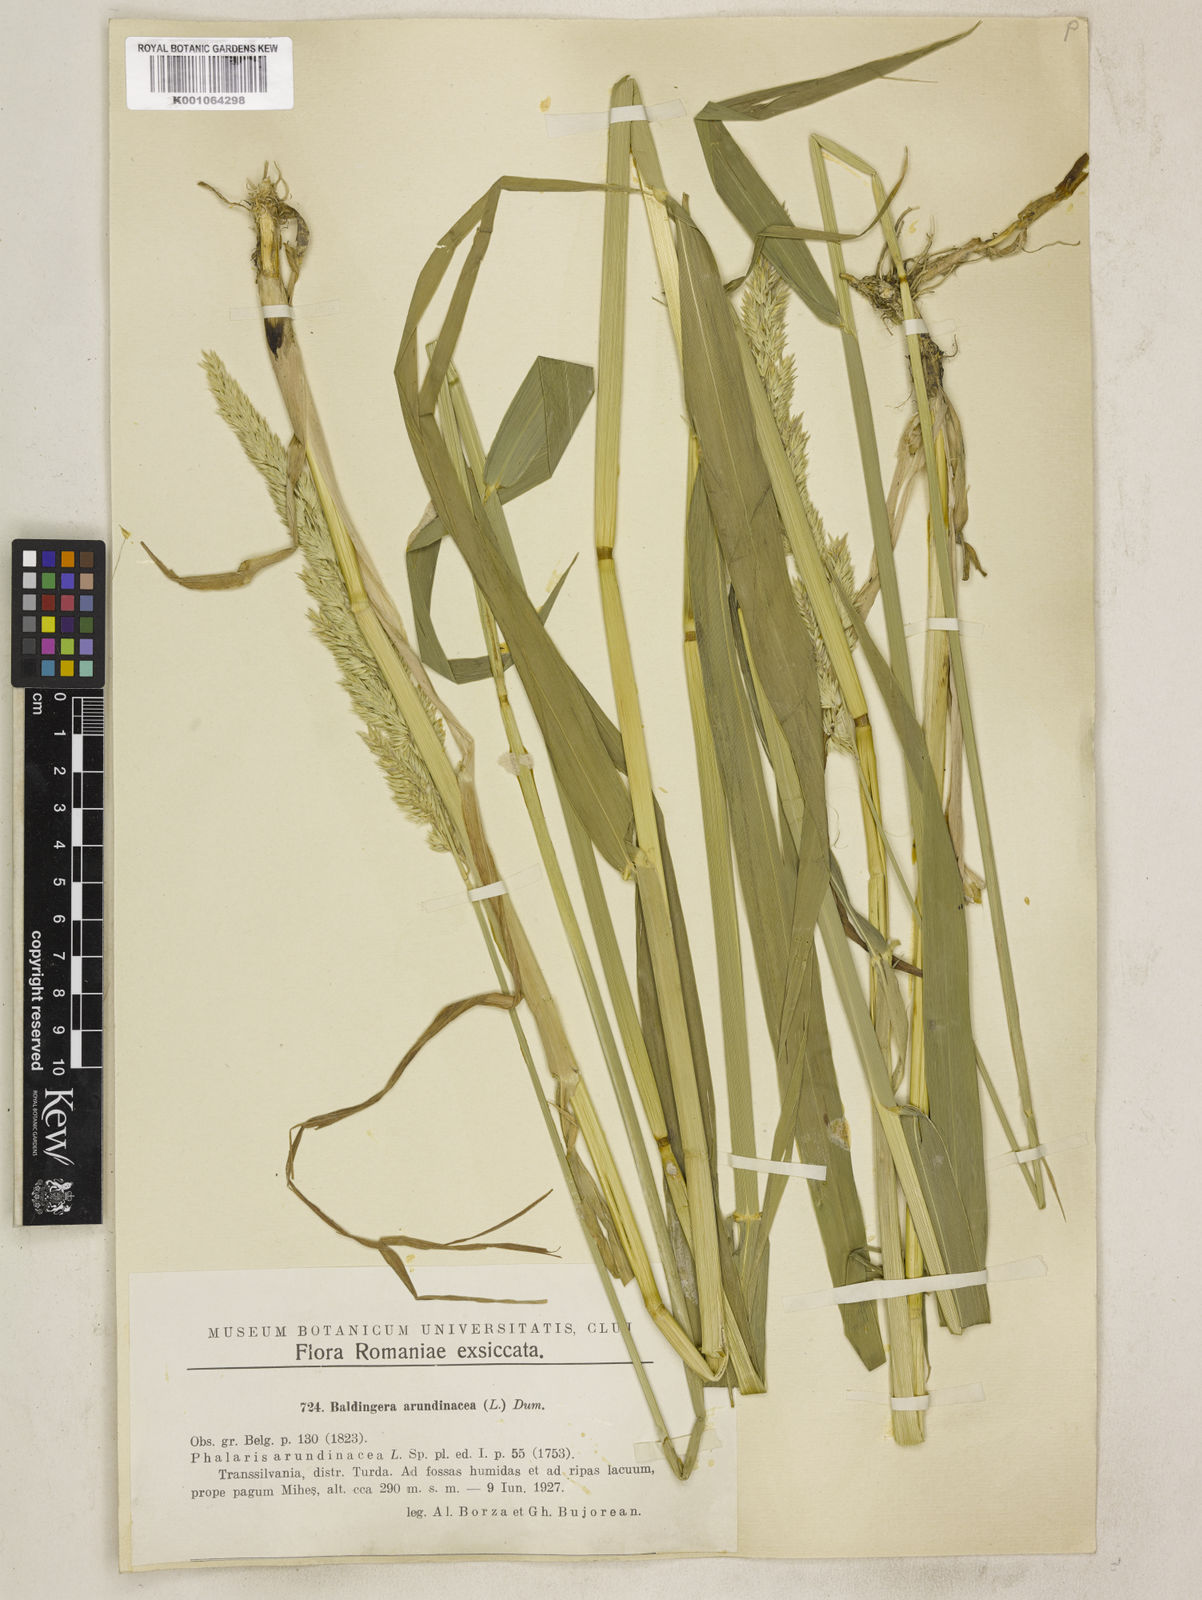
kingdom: Plantae
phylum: Tracheophyta
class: Liliopsida
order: Poales
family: Poaceae
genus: Phalaris
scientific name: Phalaris arundinacea
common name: Reed canary-grass
